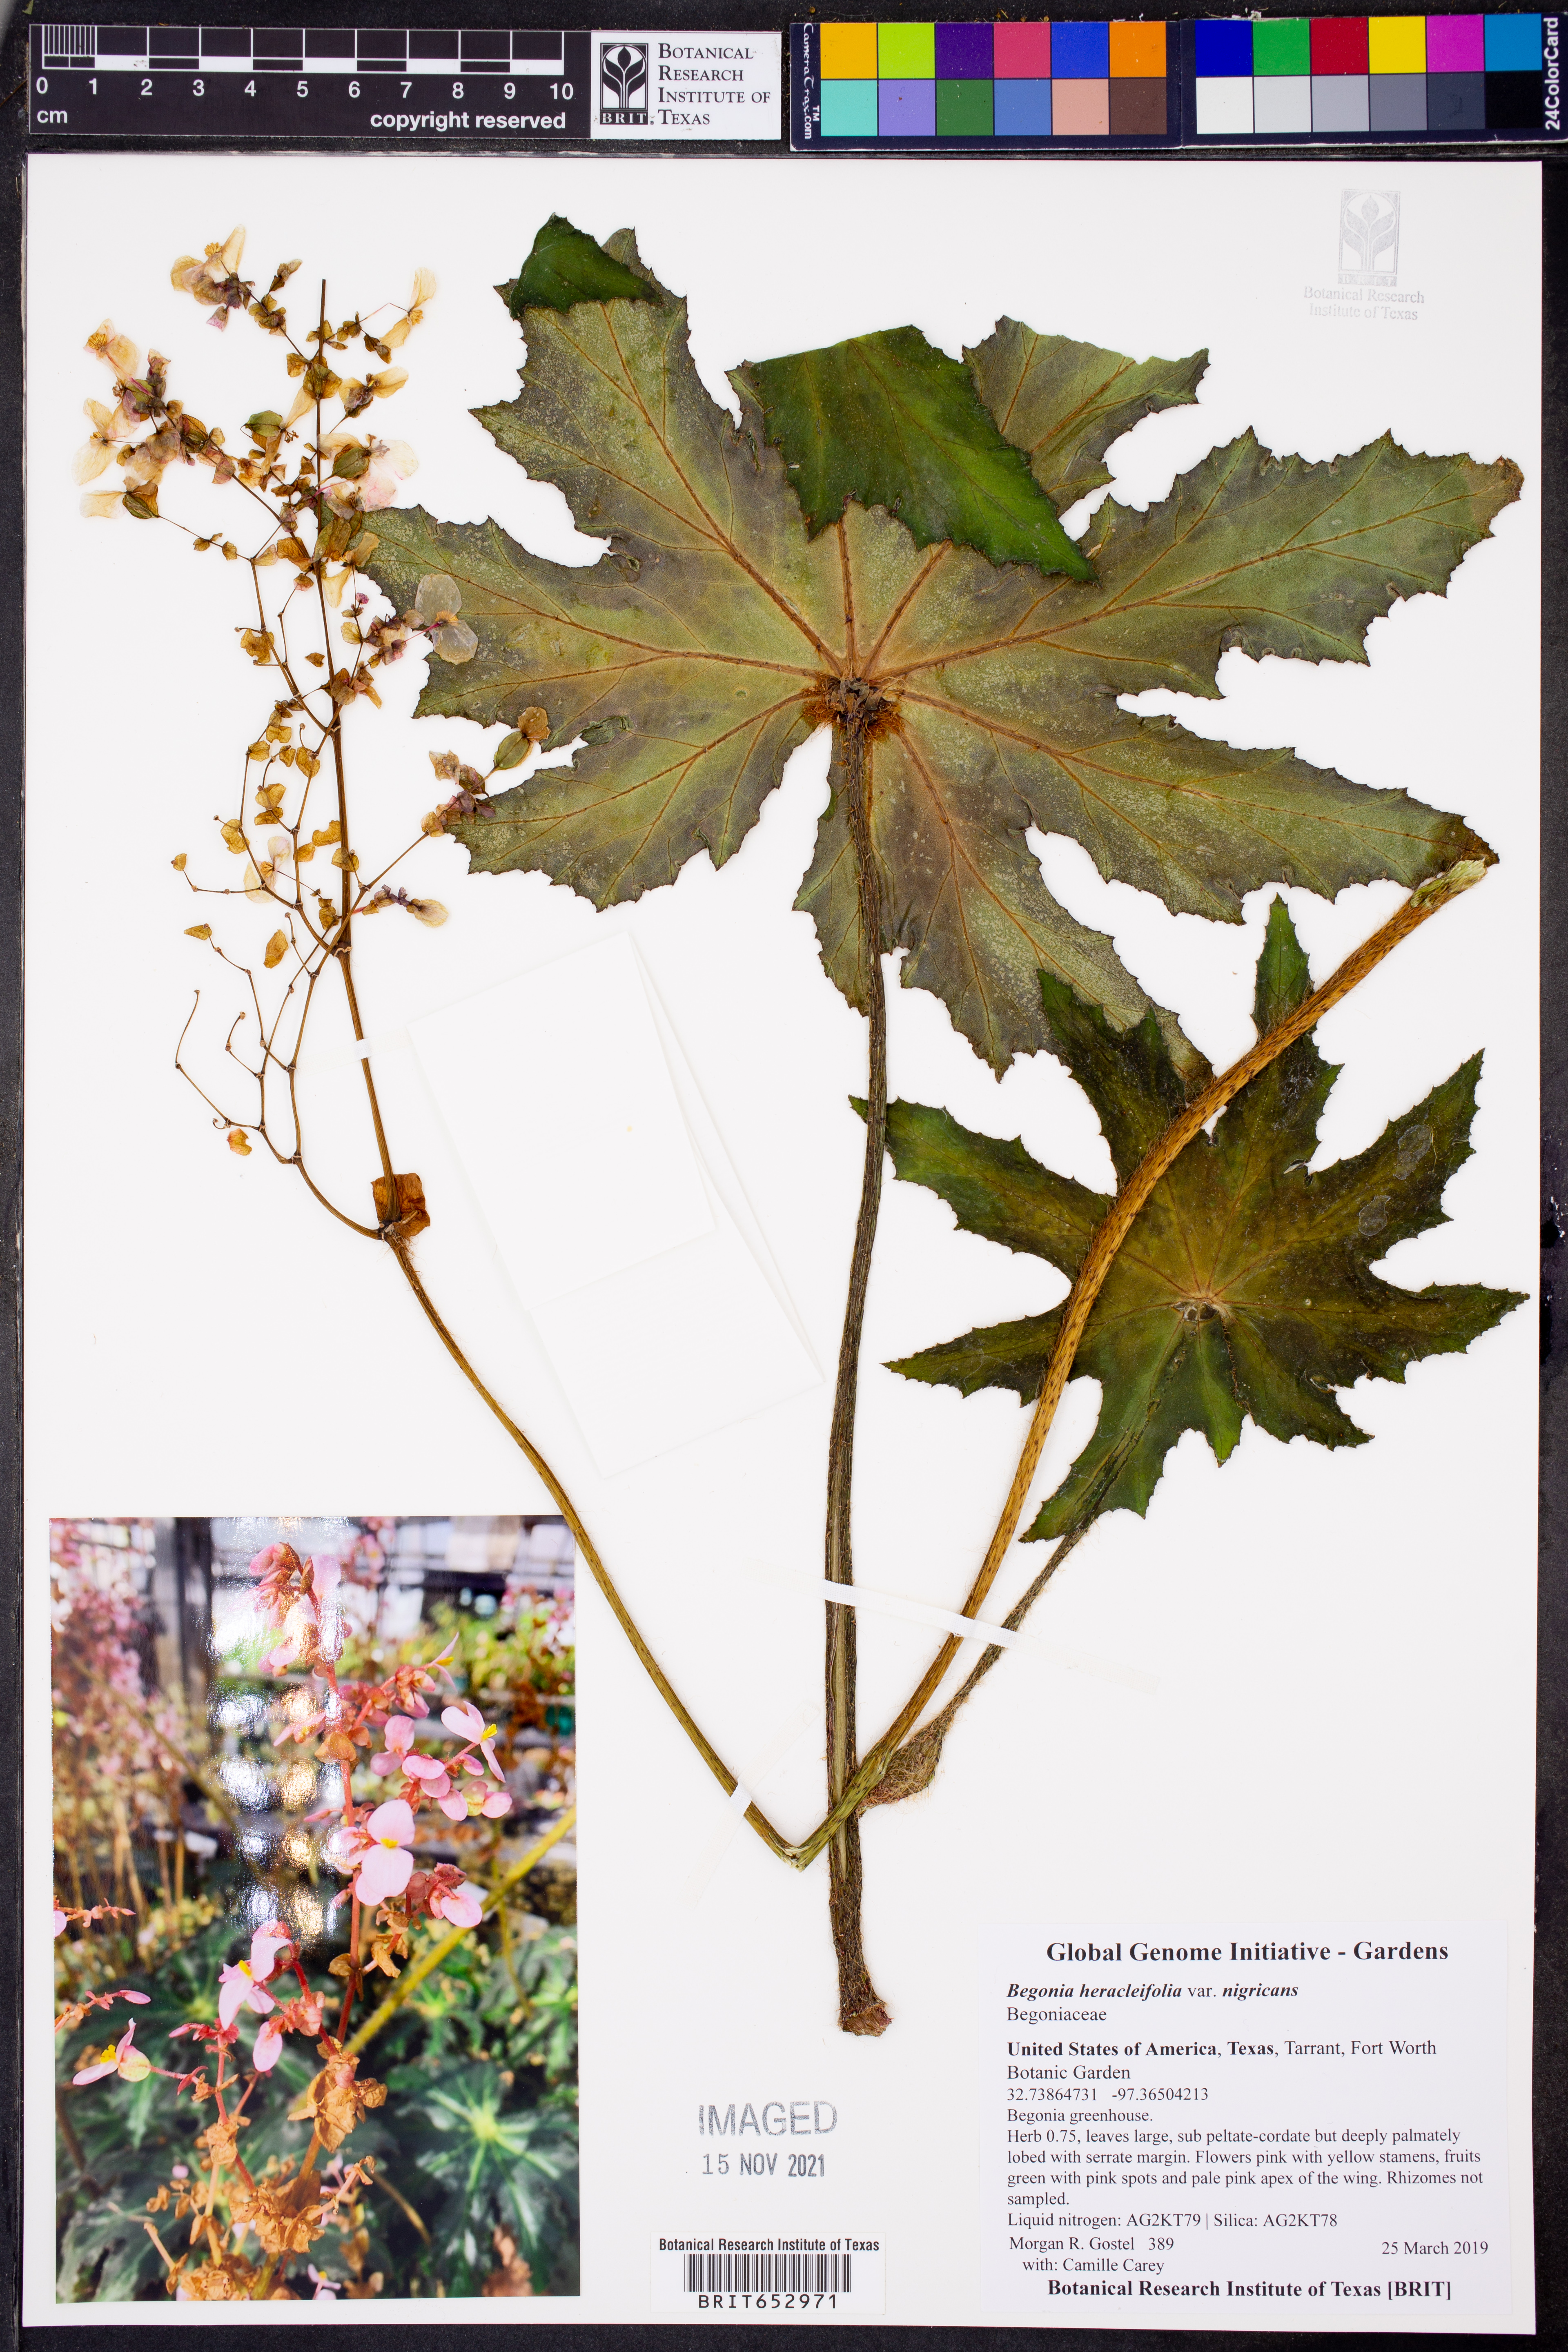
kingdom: Plantae
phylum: Tracheophyta
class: Magnoliopsida
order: Cucurbitales
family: Begoniaceae
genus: Begonia
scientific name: Begonia heracleifolia
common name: Star begonia
